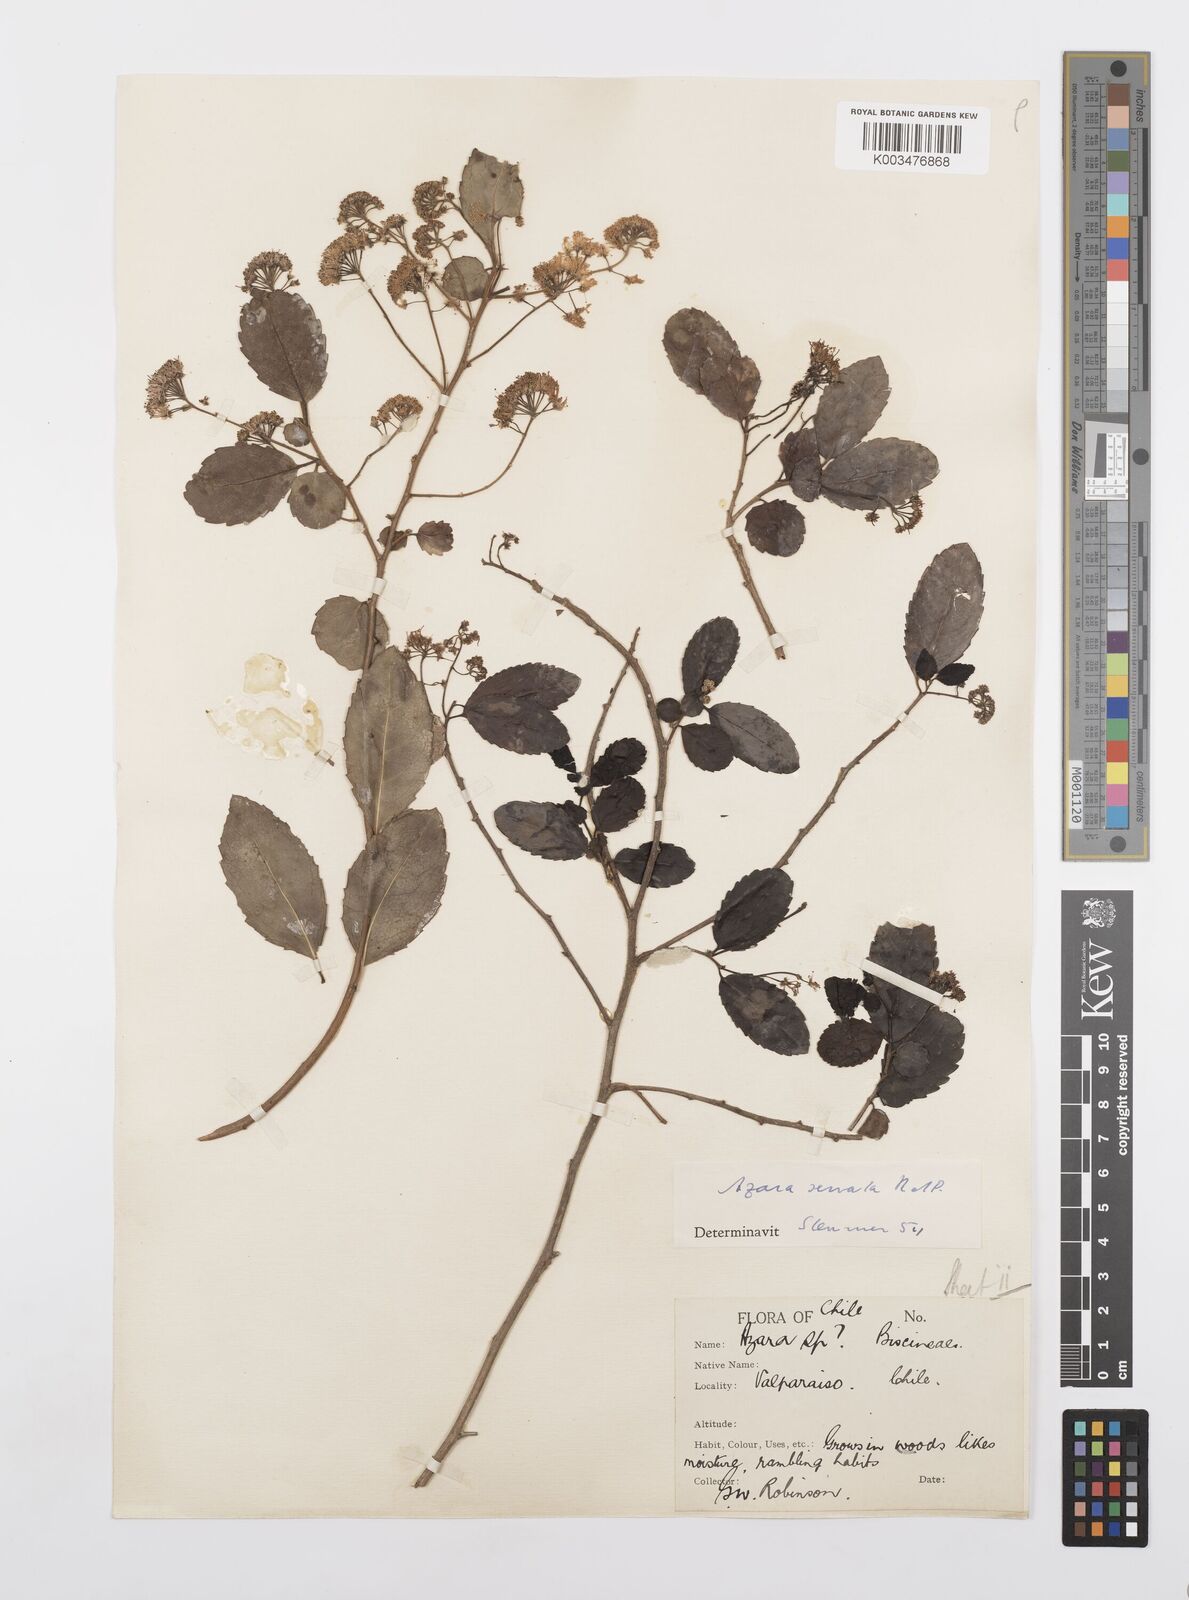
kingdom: Plantae
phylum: Tracheophyta
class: Magnoliopsida
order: Malpighiales
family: Salicaceae
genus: Azara
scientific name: Azara serrata
